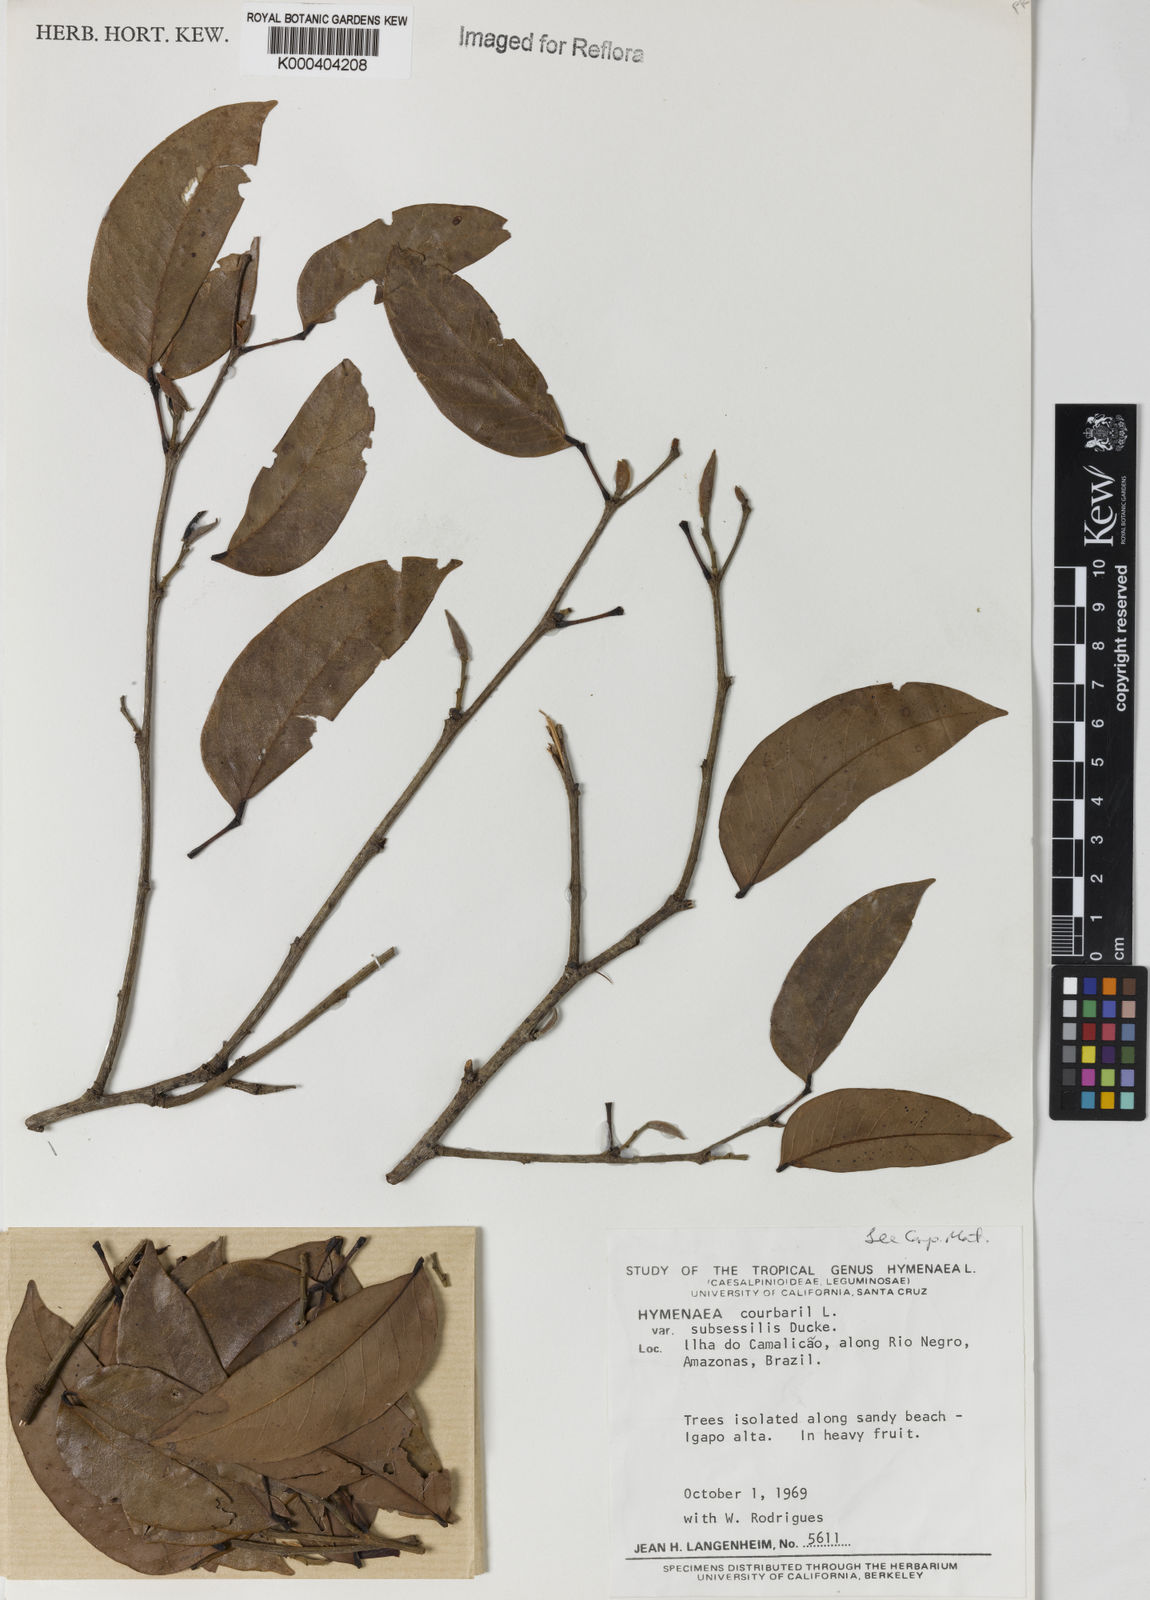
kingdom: Plantae
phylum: Tracheophyta
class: Magnoliopsida
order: Fabales
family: Fabaceae
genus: Hymenaea
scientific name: Hymenaea courbaril
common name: Brazilian copal
